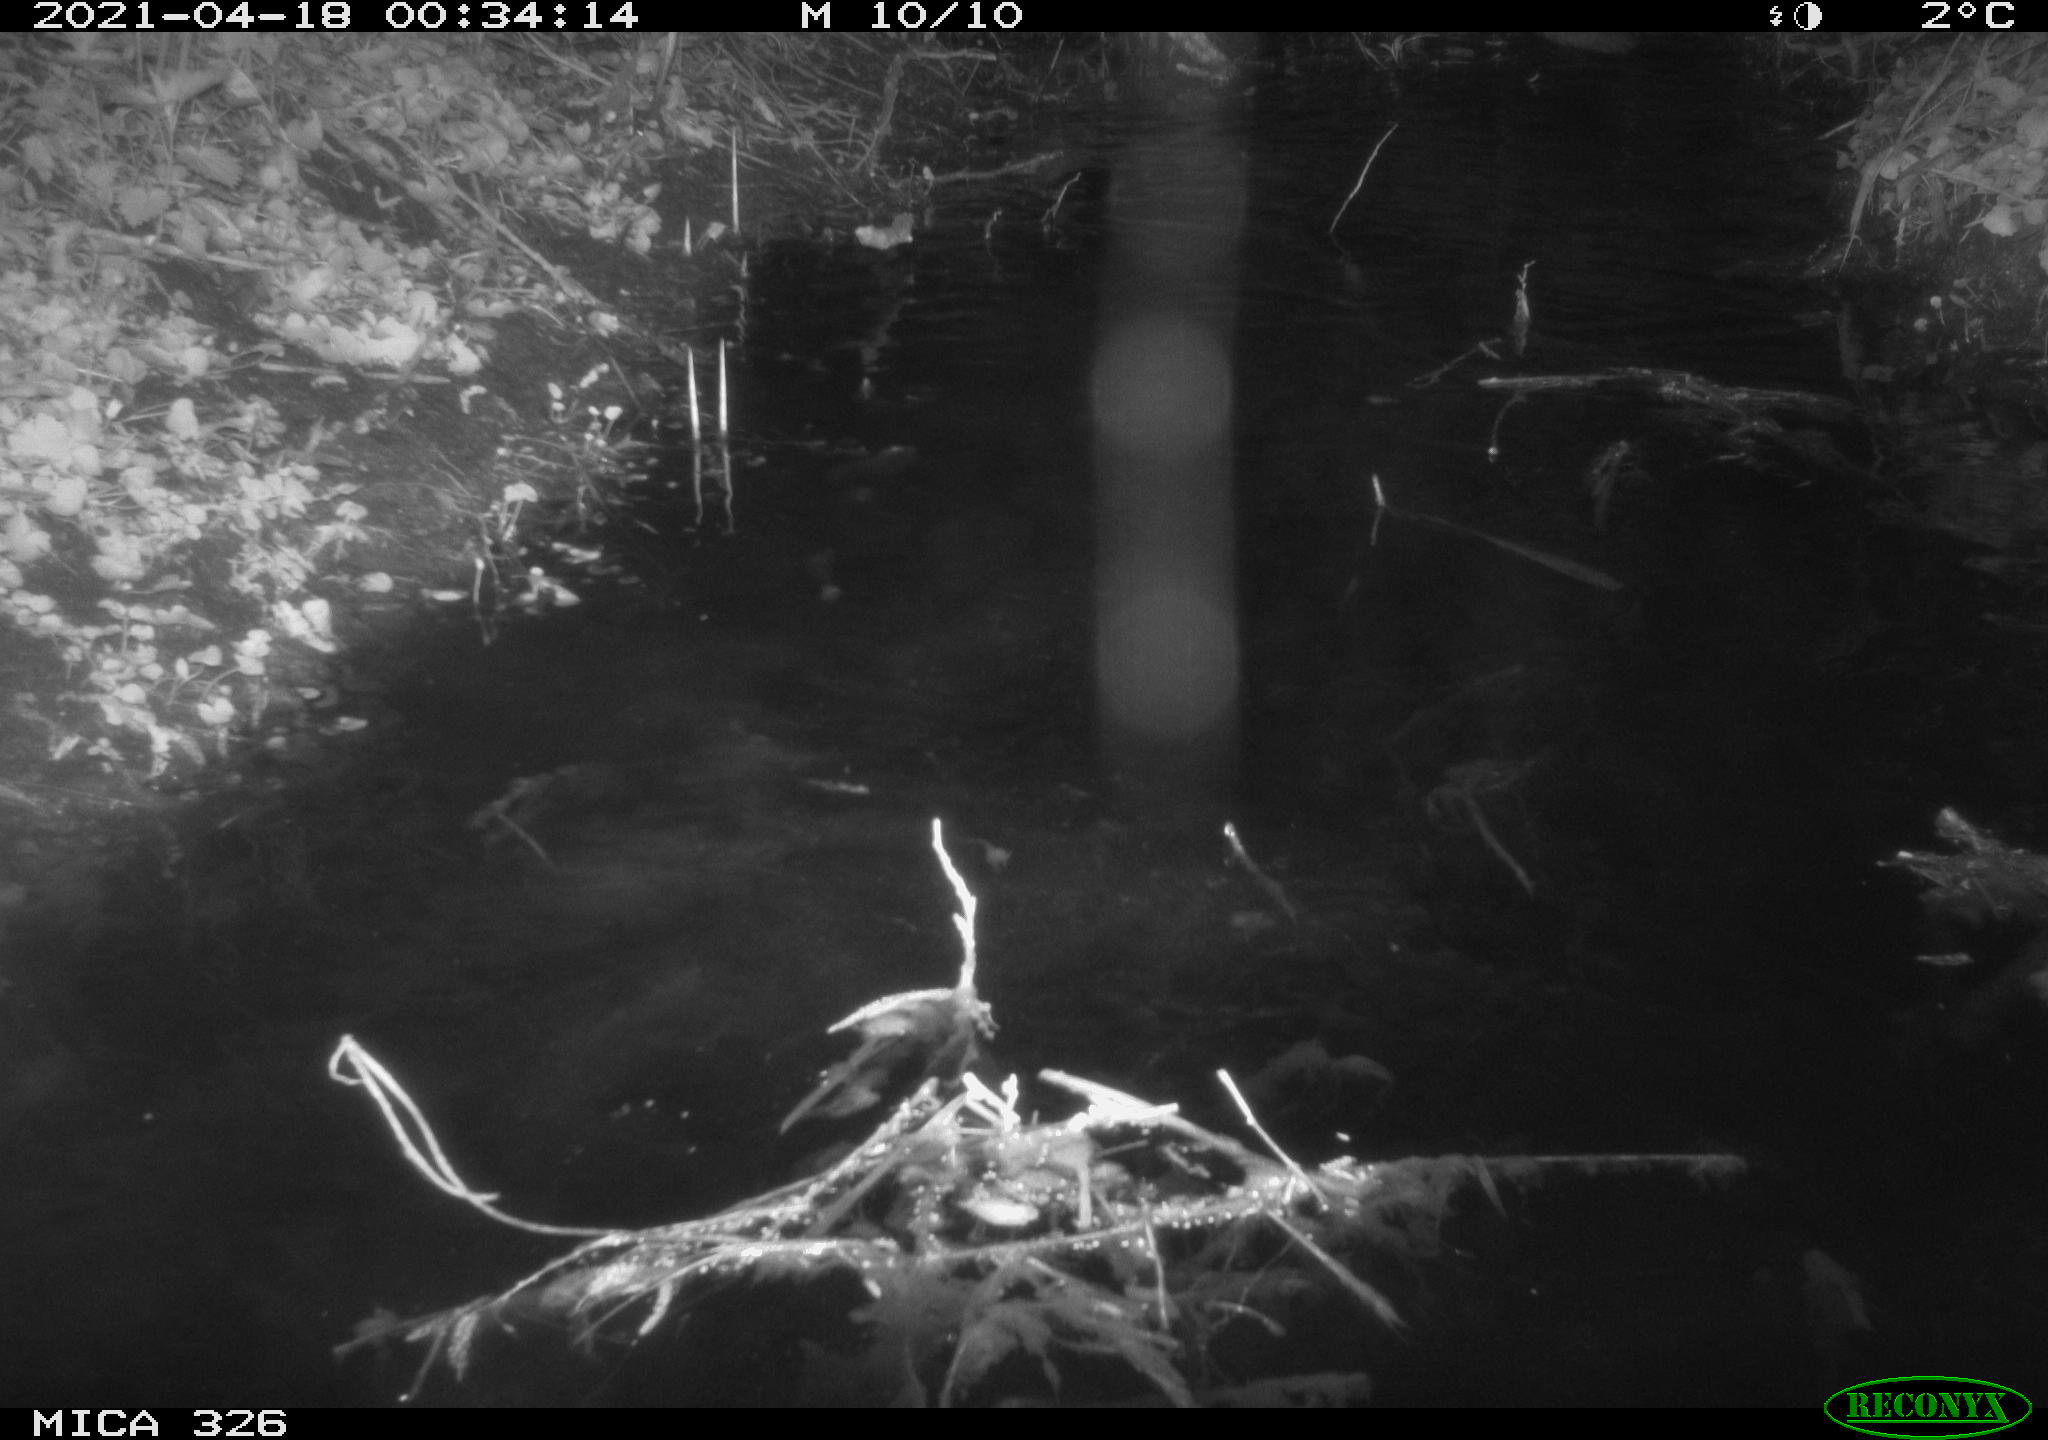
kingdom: Animalia
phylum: Chordata
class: Mammalia
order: Rodentia
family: Cricetidae
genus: Ondatra
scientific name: Ondatra zibethicus
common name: Muskrat
